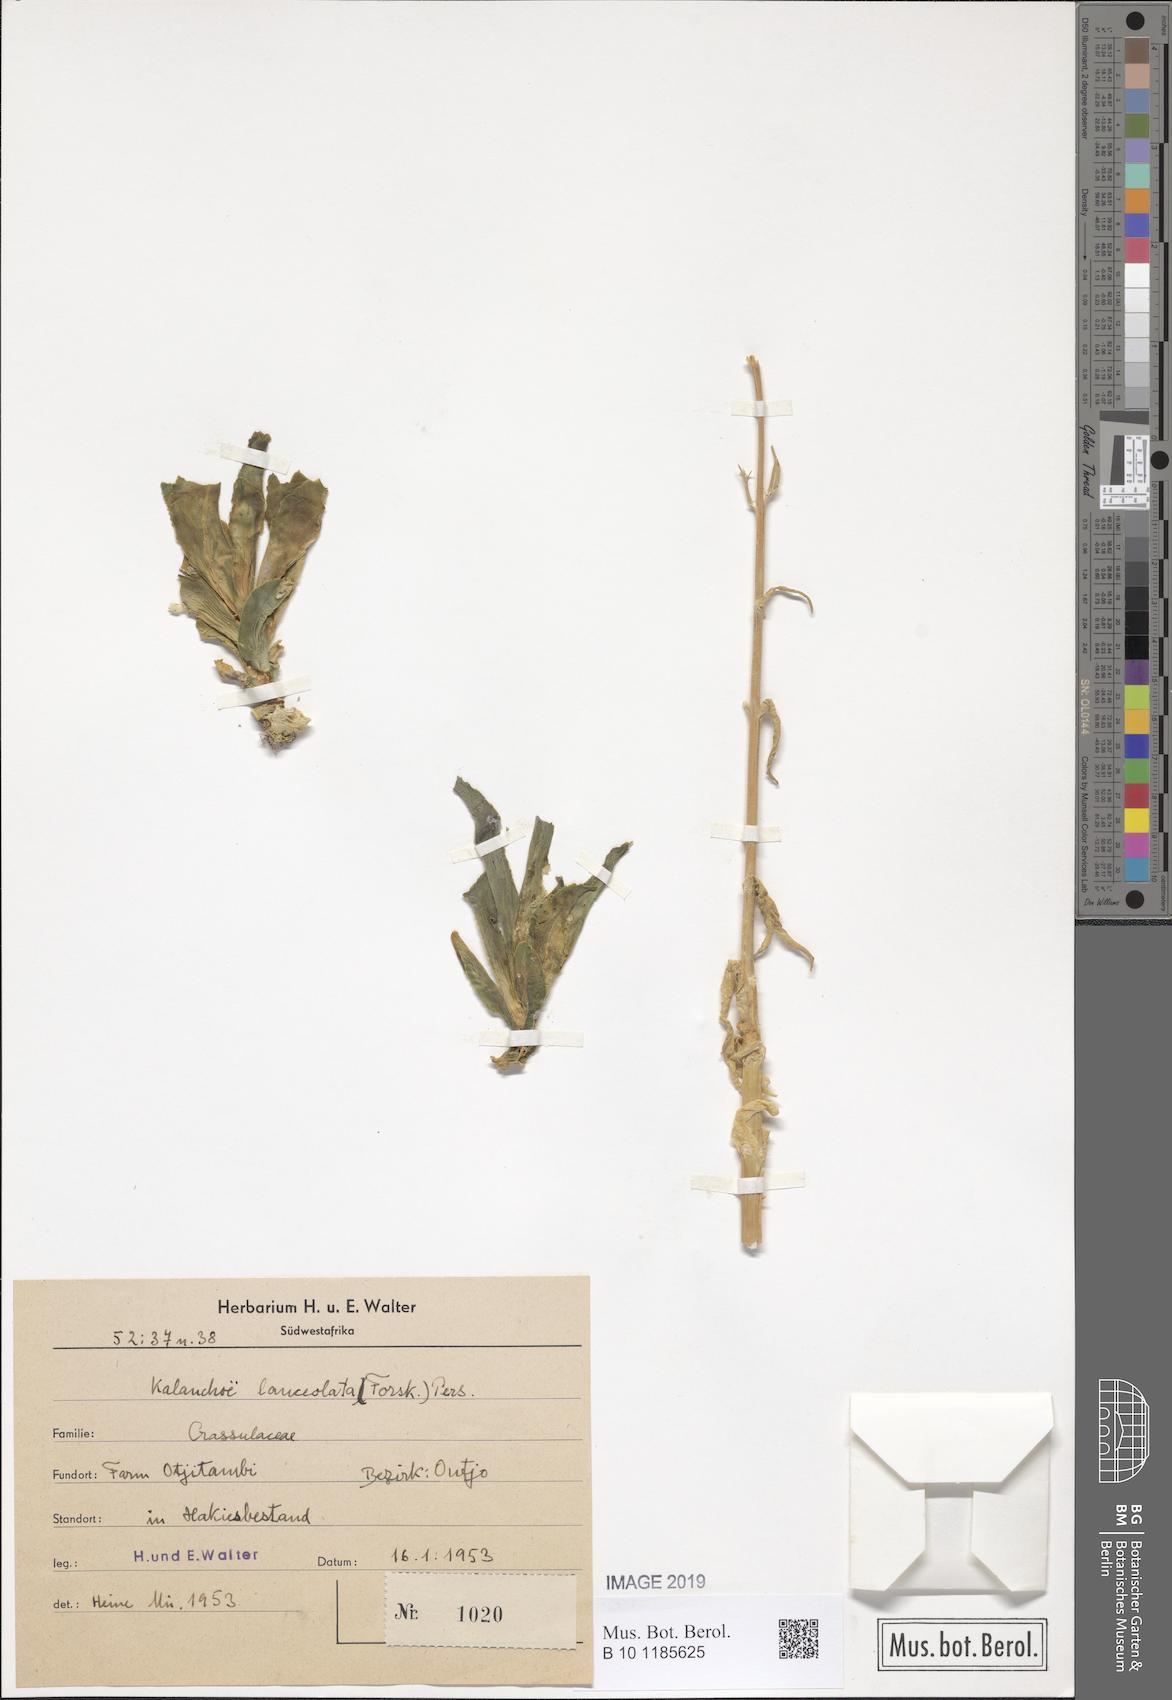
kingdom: Plantae
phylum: Tracheophyta
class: Magnoliopsida
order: Saxifragales
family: Crassulaceae
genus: Kalanchoe
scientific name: Kalanchoe lanceolata
